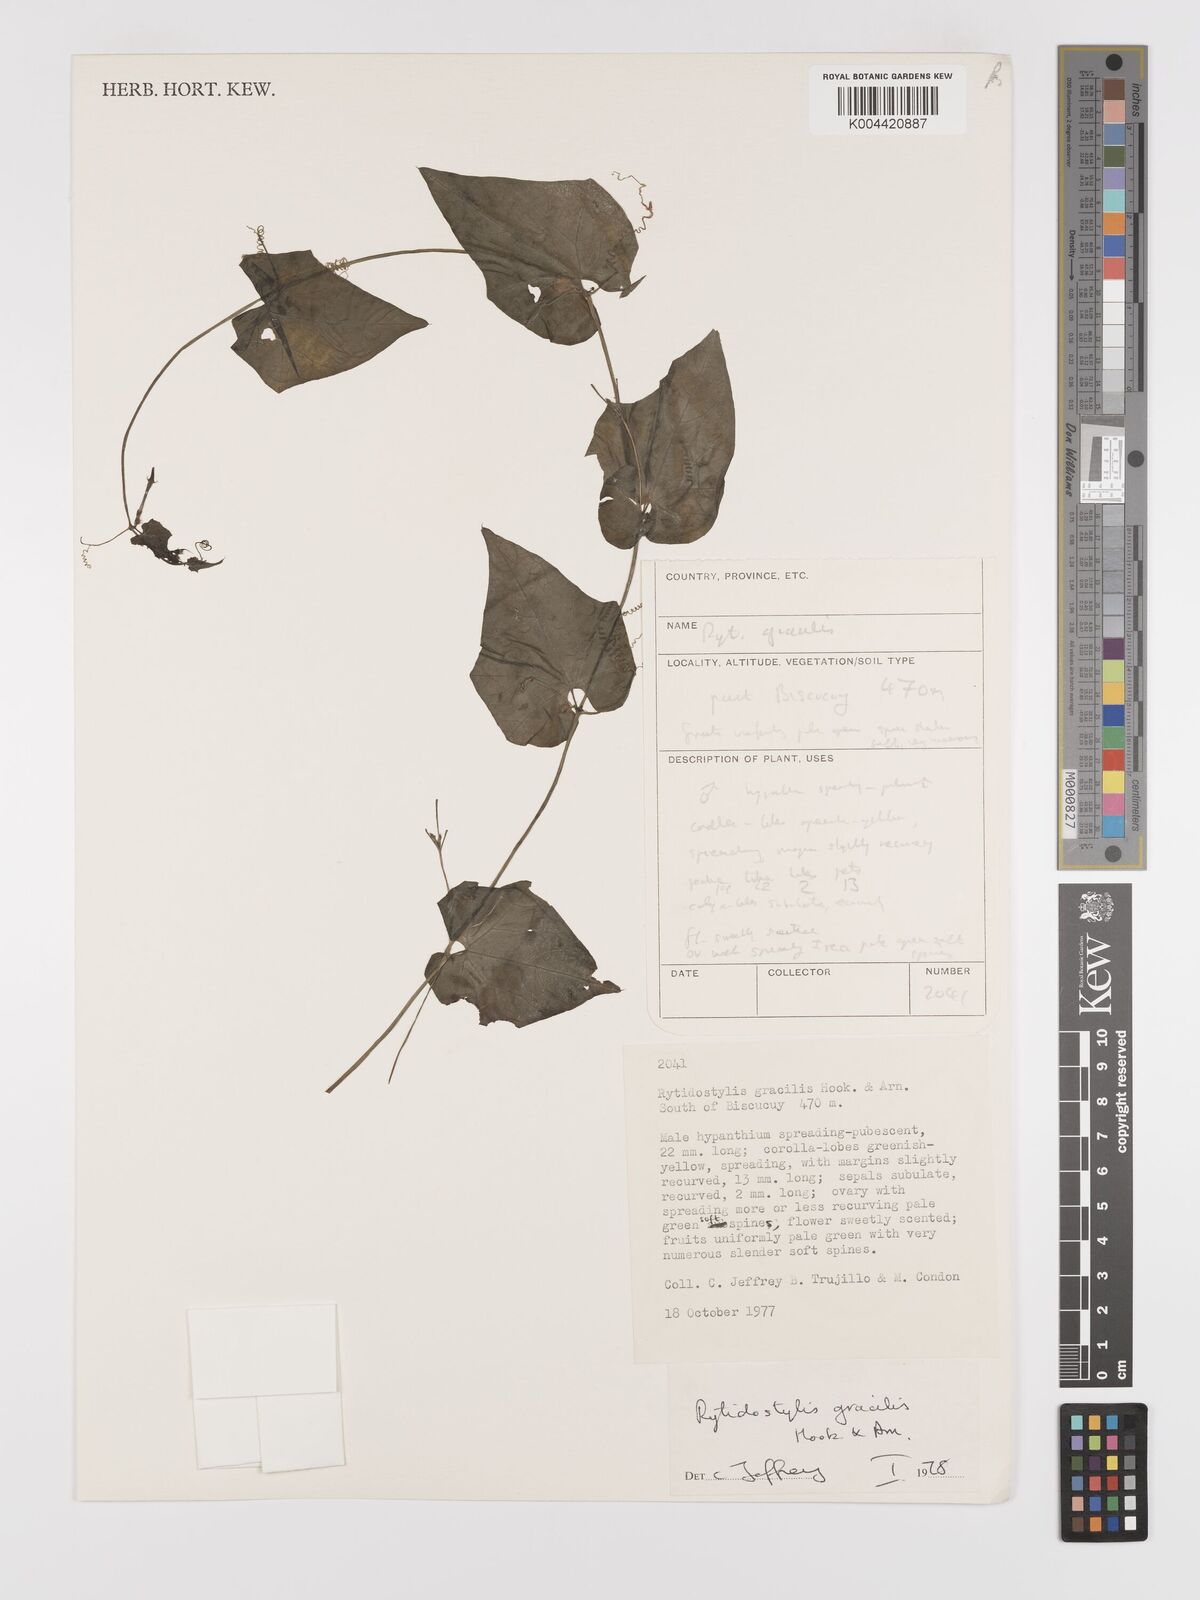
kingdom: Plantae
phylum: Tracheophyta
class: Magnoliopsida
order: Cucurbitales
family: Cucurbitaceae
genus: Cyclanthera
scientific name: Cyclanthera filiformis
